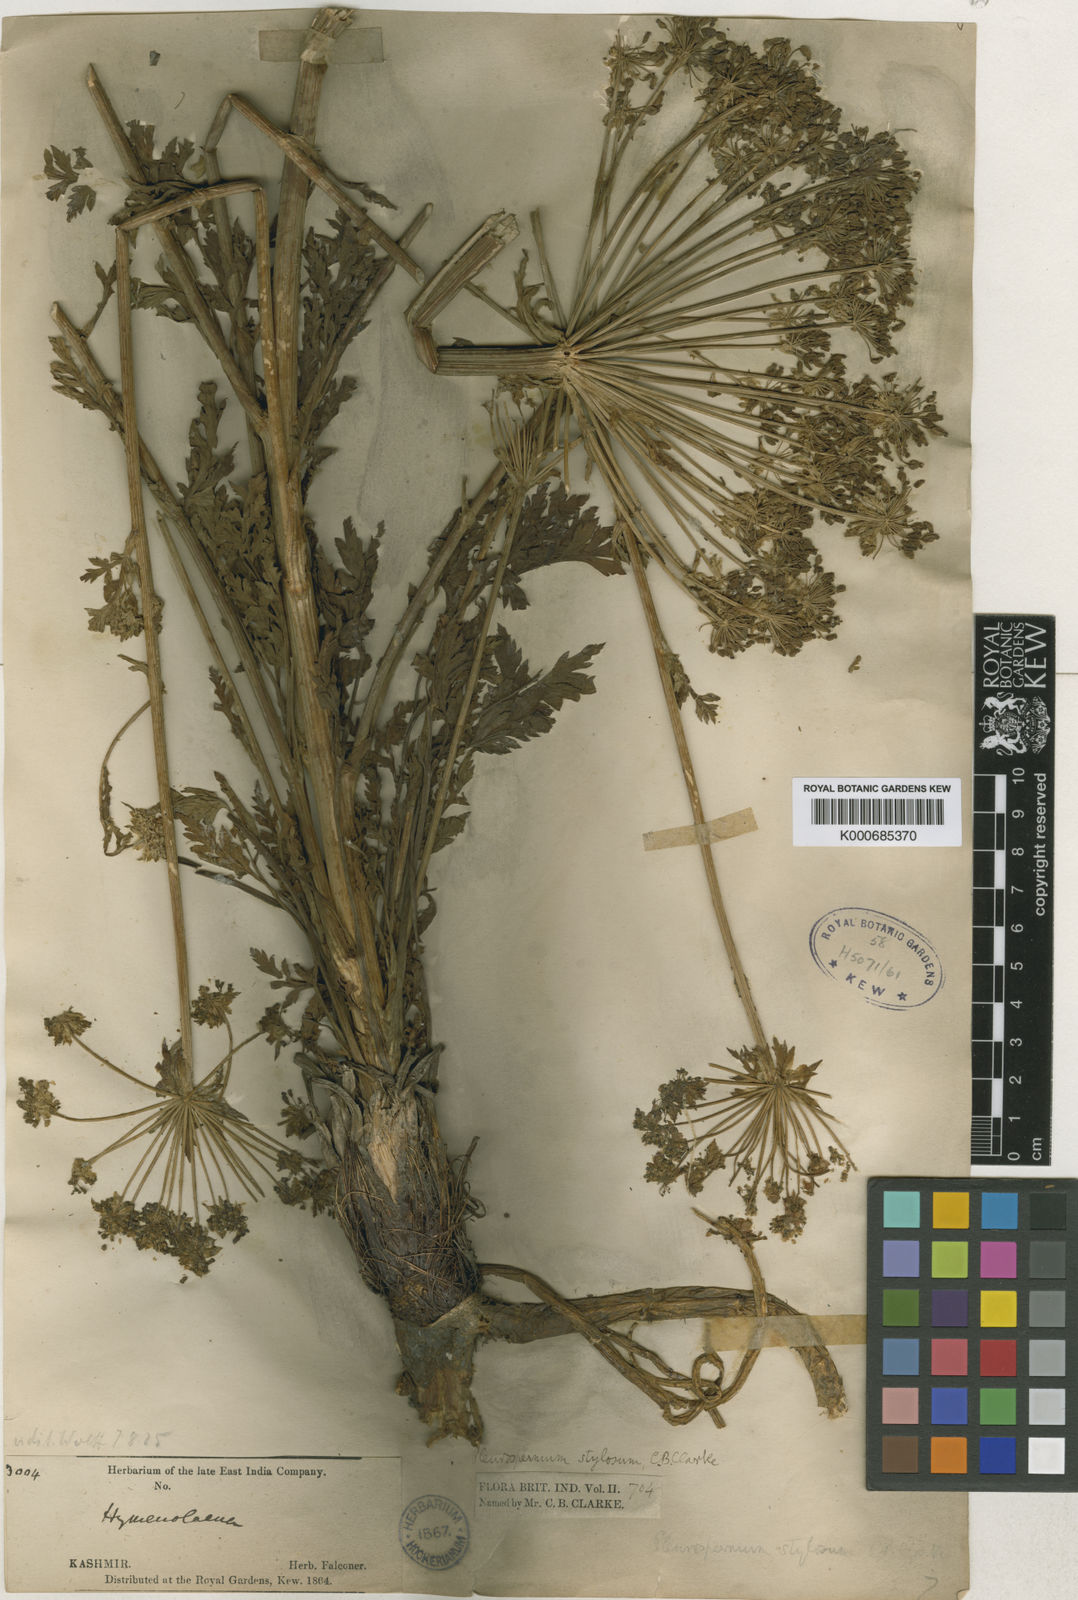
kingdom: Plantae
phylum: Tracheophyta
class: Magnoliopsida
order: Apiales
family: Apiaceae
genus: Aulacospermum
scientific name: Aulacospermum stylosum
